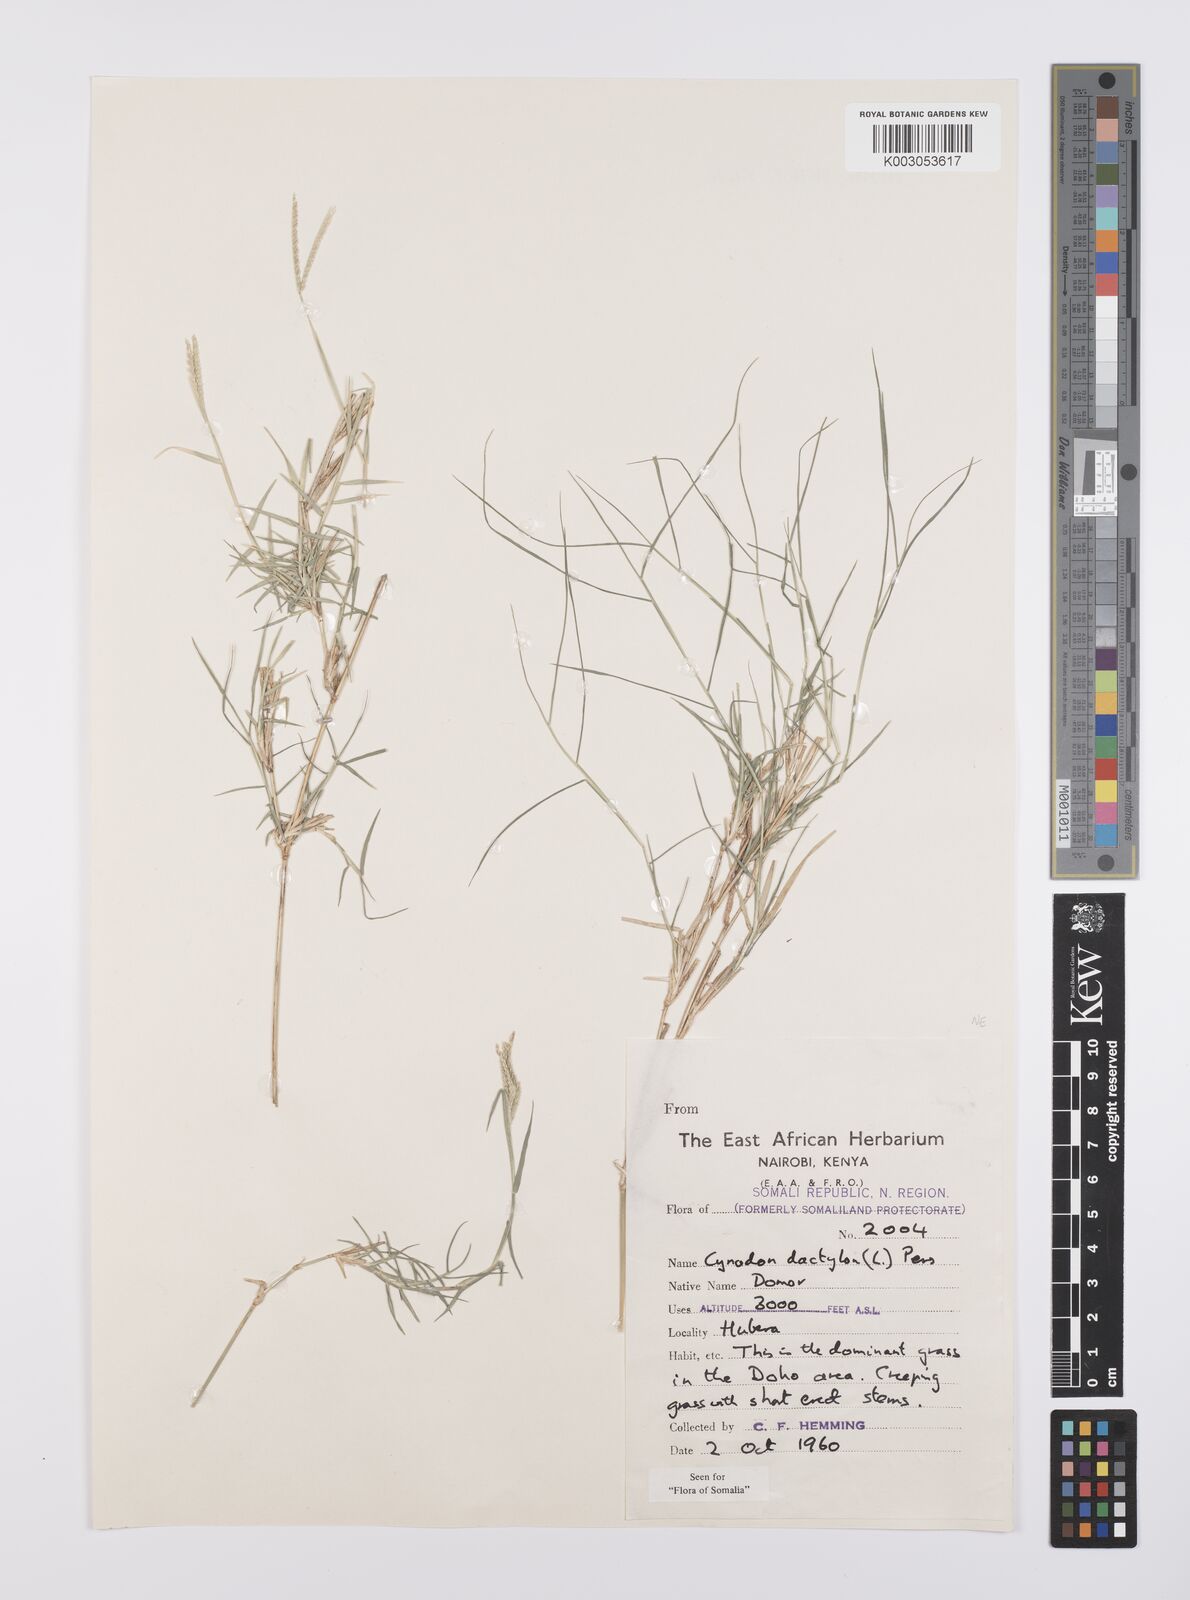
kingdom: Plantae
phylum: Tracheophyta
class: Liliopsida
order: Poales
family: Poaceae
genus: Cynodon
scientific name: Cynodon dactylon
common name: Bermuda grass
